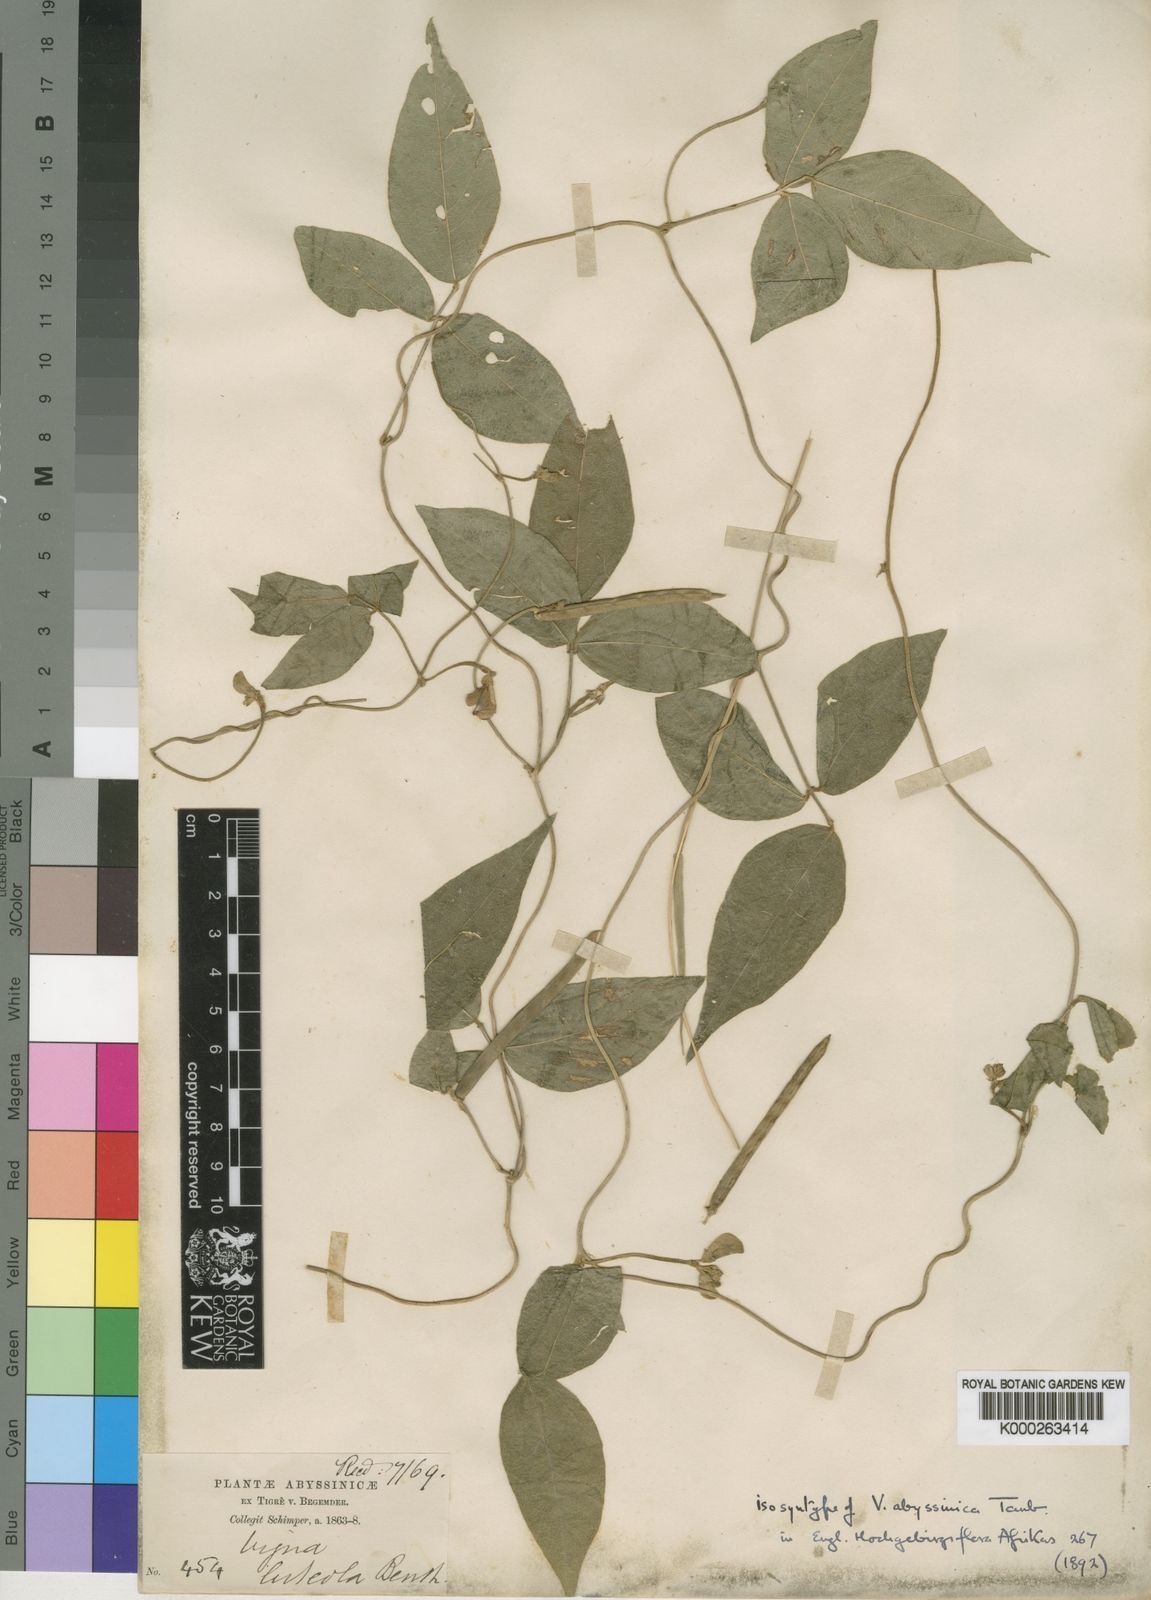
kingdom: Plantae
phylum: Tracheophyta
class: Magnoliopsida
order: Fabales
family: Fabaceae
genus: Vigna
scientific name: Vigna ambacensis
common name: Tsarkiyan zomo
